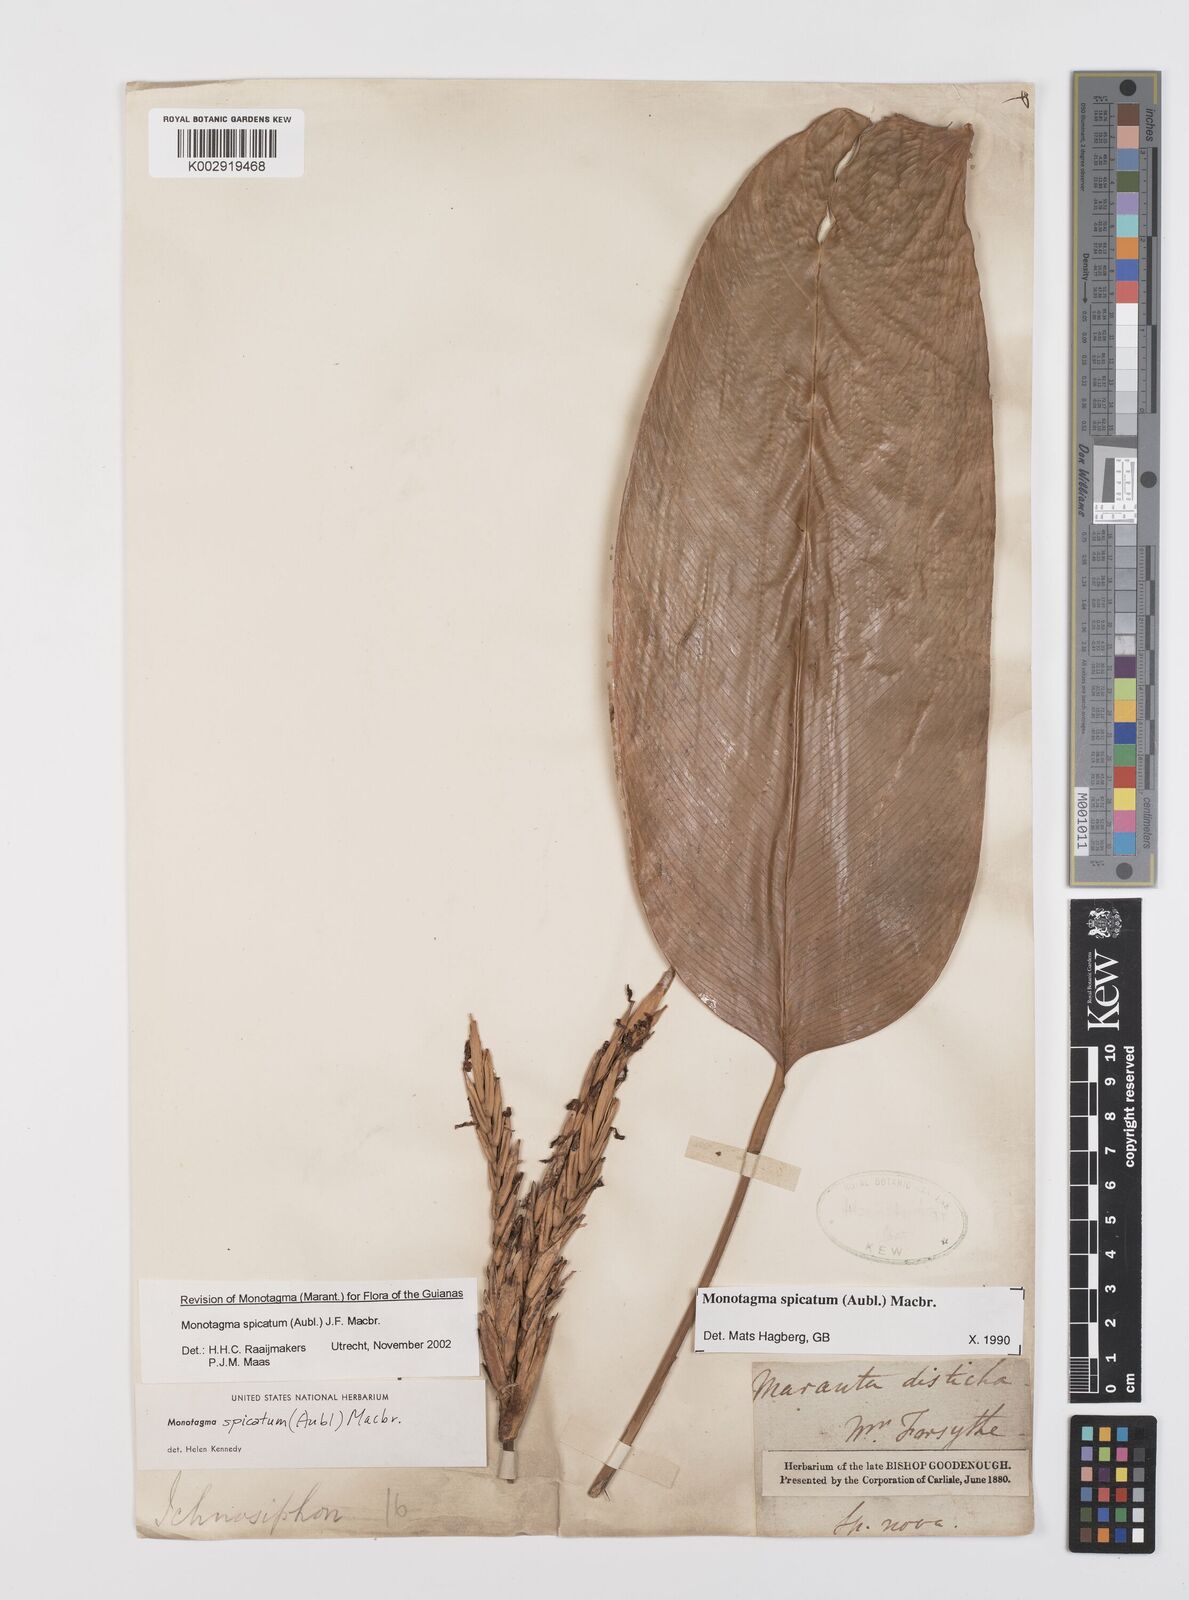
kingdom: Plantae
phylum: Tracheophyta
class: Liliopsida
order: Zingiberales
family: Marantaceae
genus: Monotagma
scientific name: Monotagma spicatum
